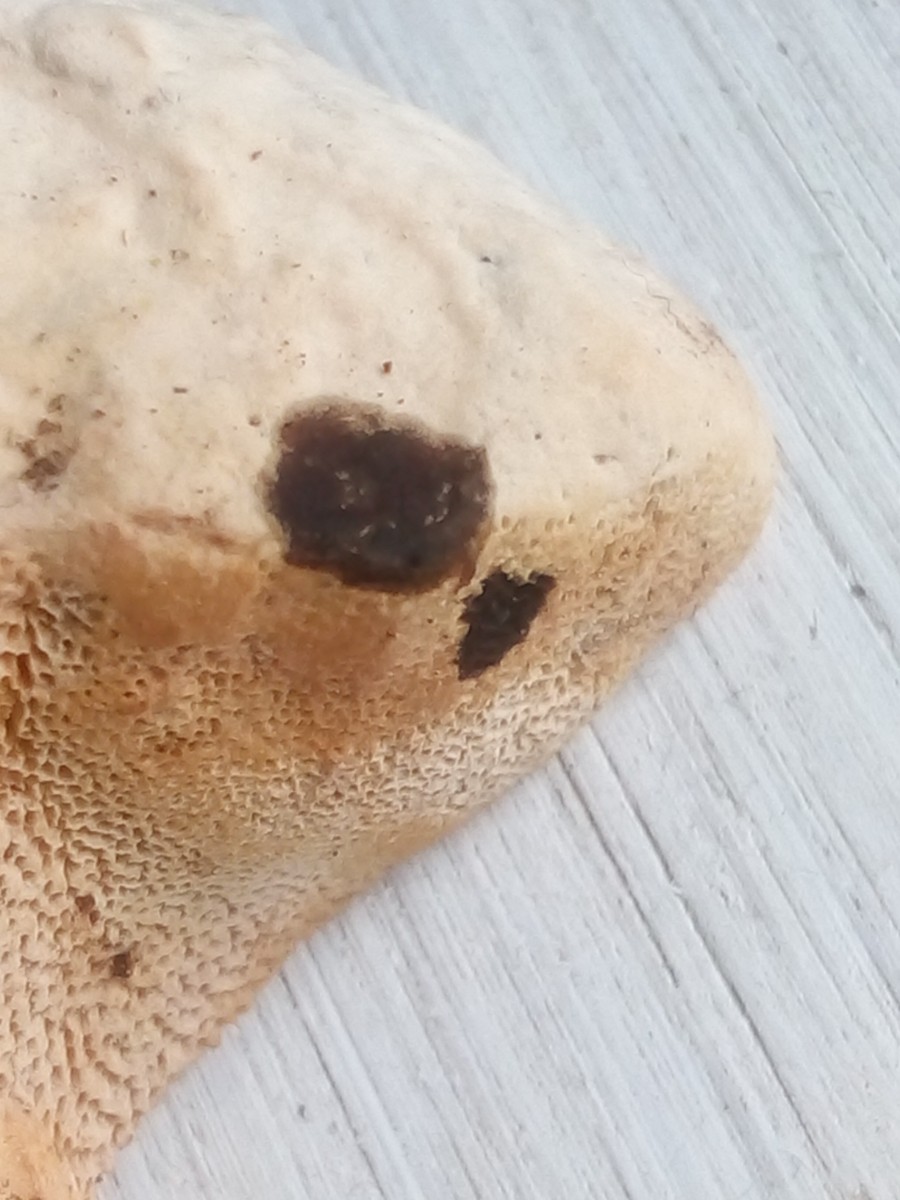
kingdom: Fungi
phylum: Basidiomycota
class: Agaricomycetes
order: Polyporales
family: Phanerochaetaceae
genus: Hapalopilus
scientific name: Hapalopilus rutilans
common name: rødlig okkerporesvamp
